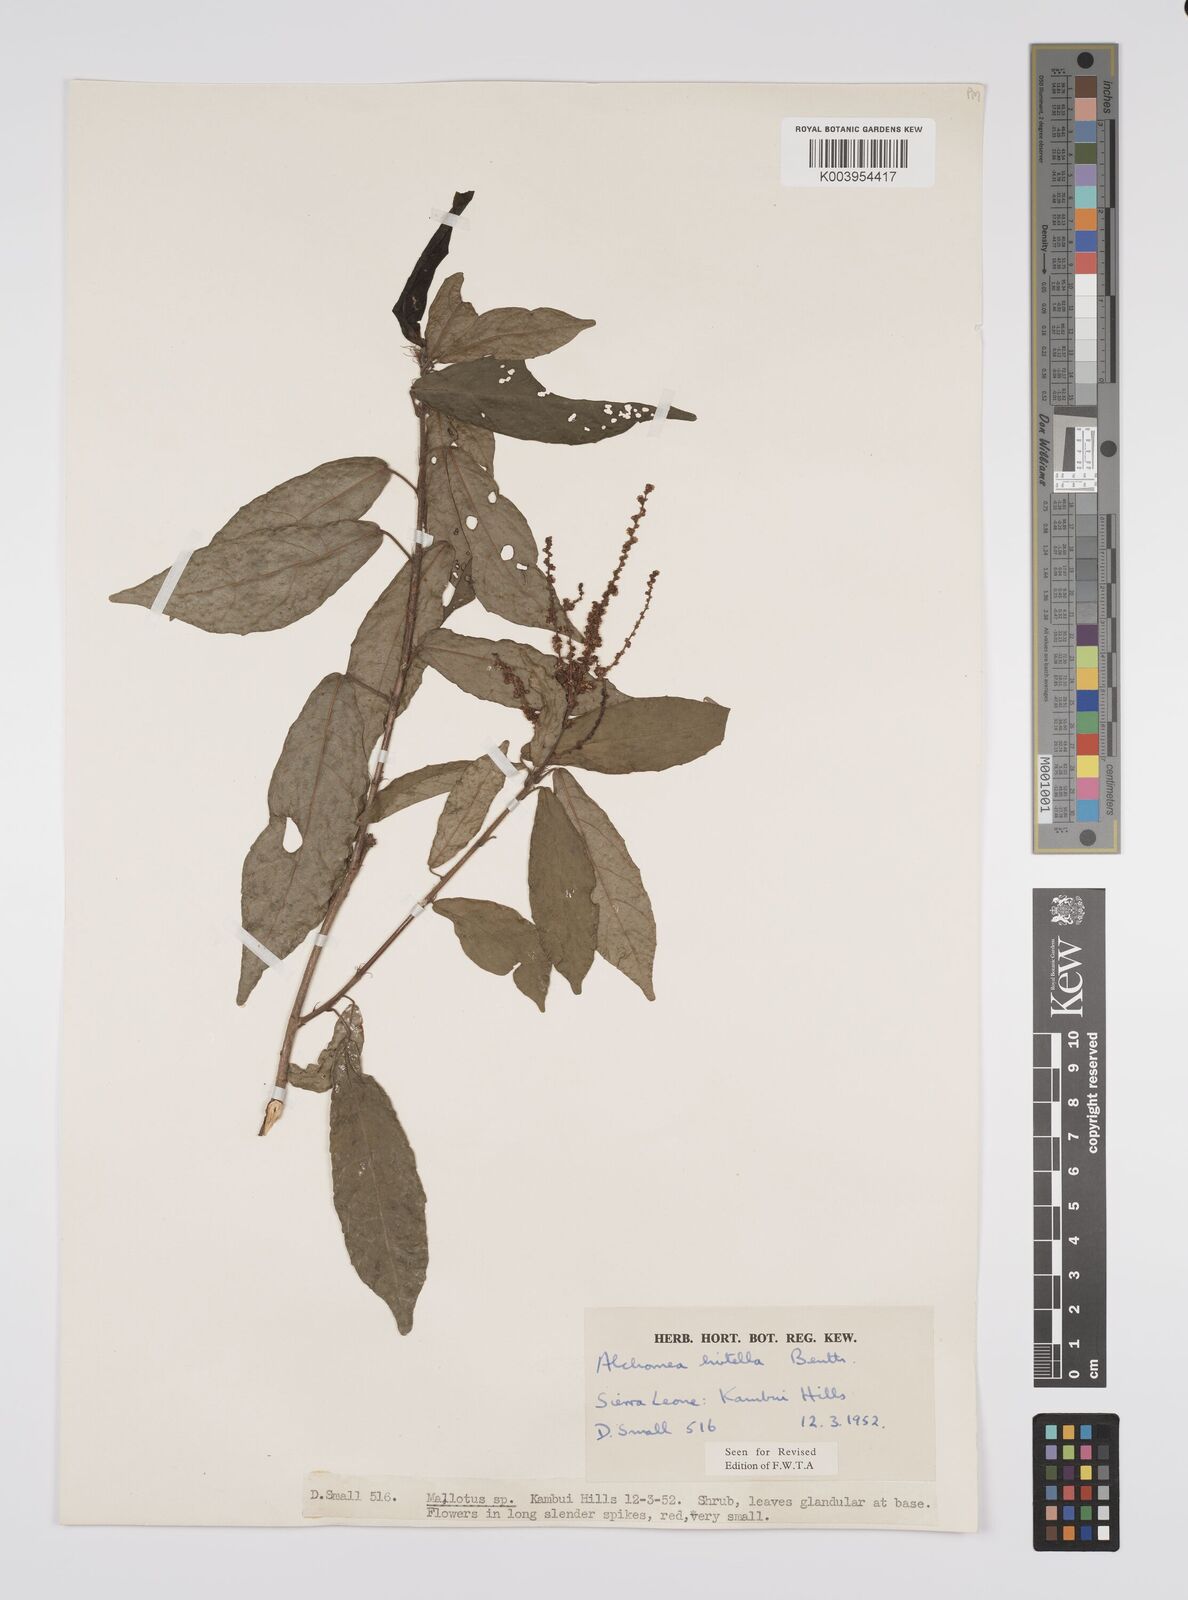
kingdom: Plantae
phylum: Tracheophyta
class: Magnoliopsida
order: Malpighiales
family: Euphorbiaceae
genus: Alchornea
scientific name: Alchornea hirtella
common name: Forest bead-string
